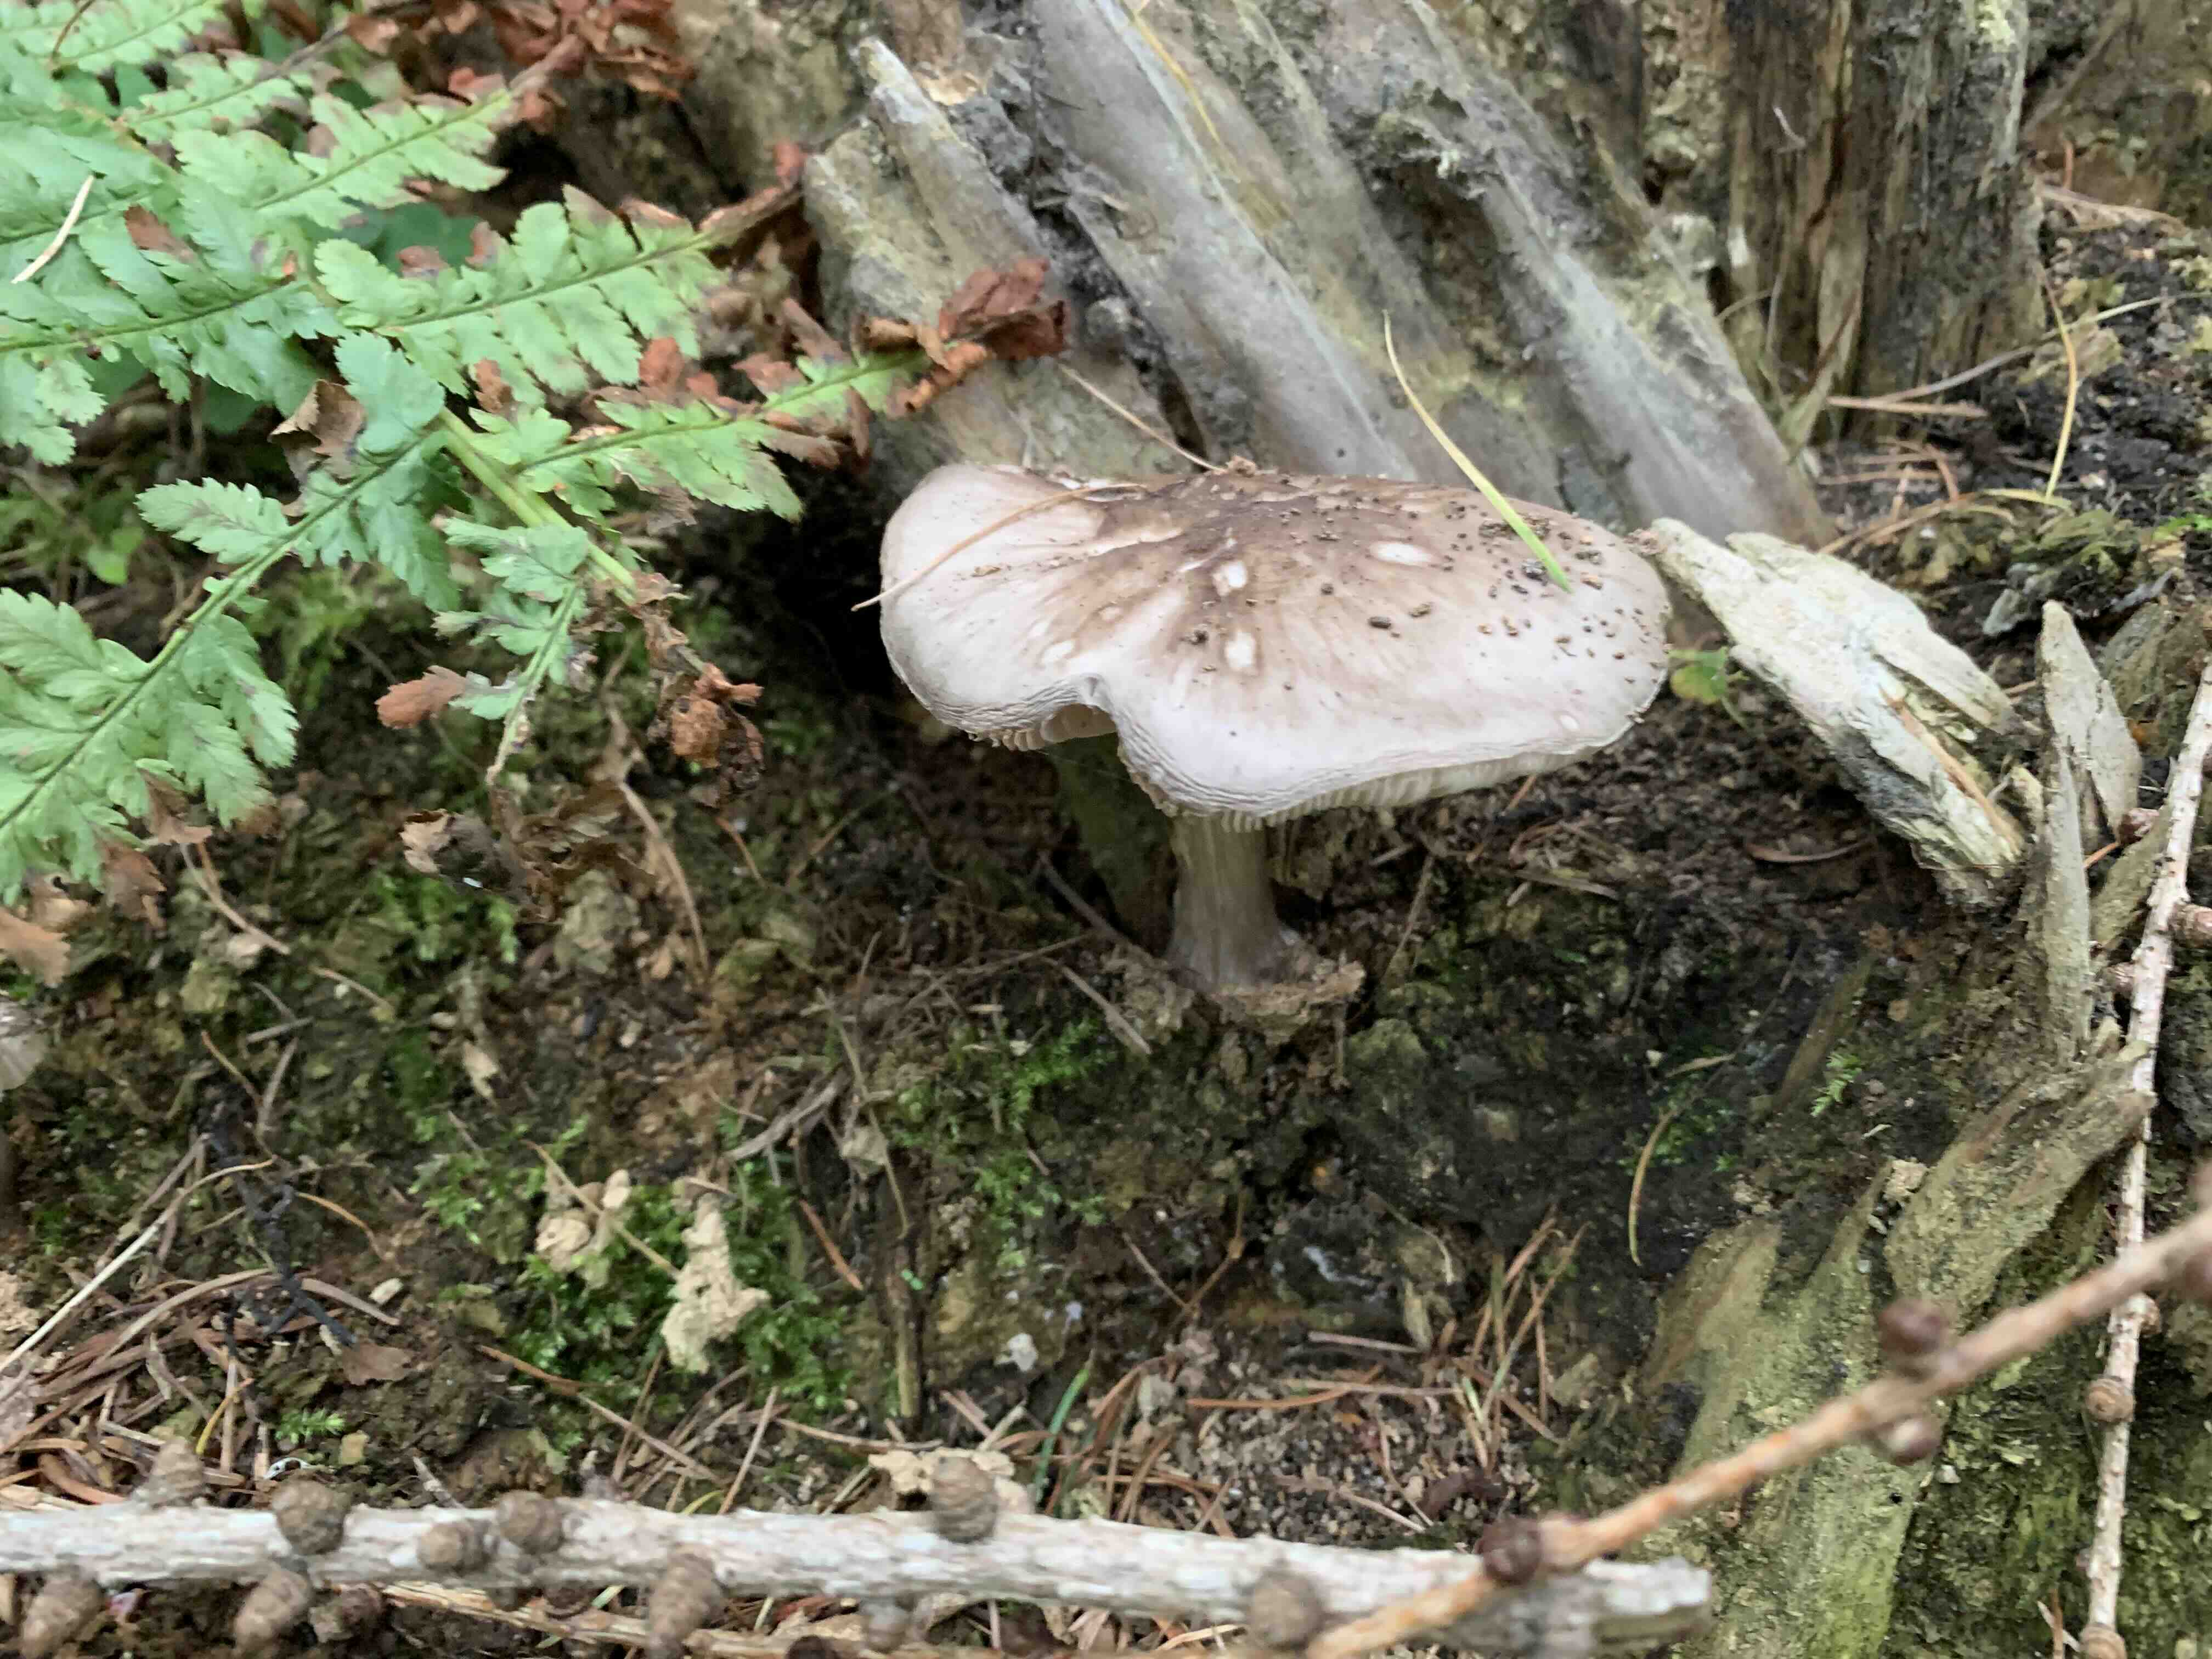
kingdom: Fungi
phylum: Basidiomycota
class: Agaricomycetes
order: Agaricales
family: Pluteaceae
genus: Pluteus
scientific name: Pluteus cervinus
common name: sodfarvet skærmhat
